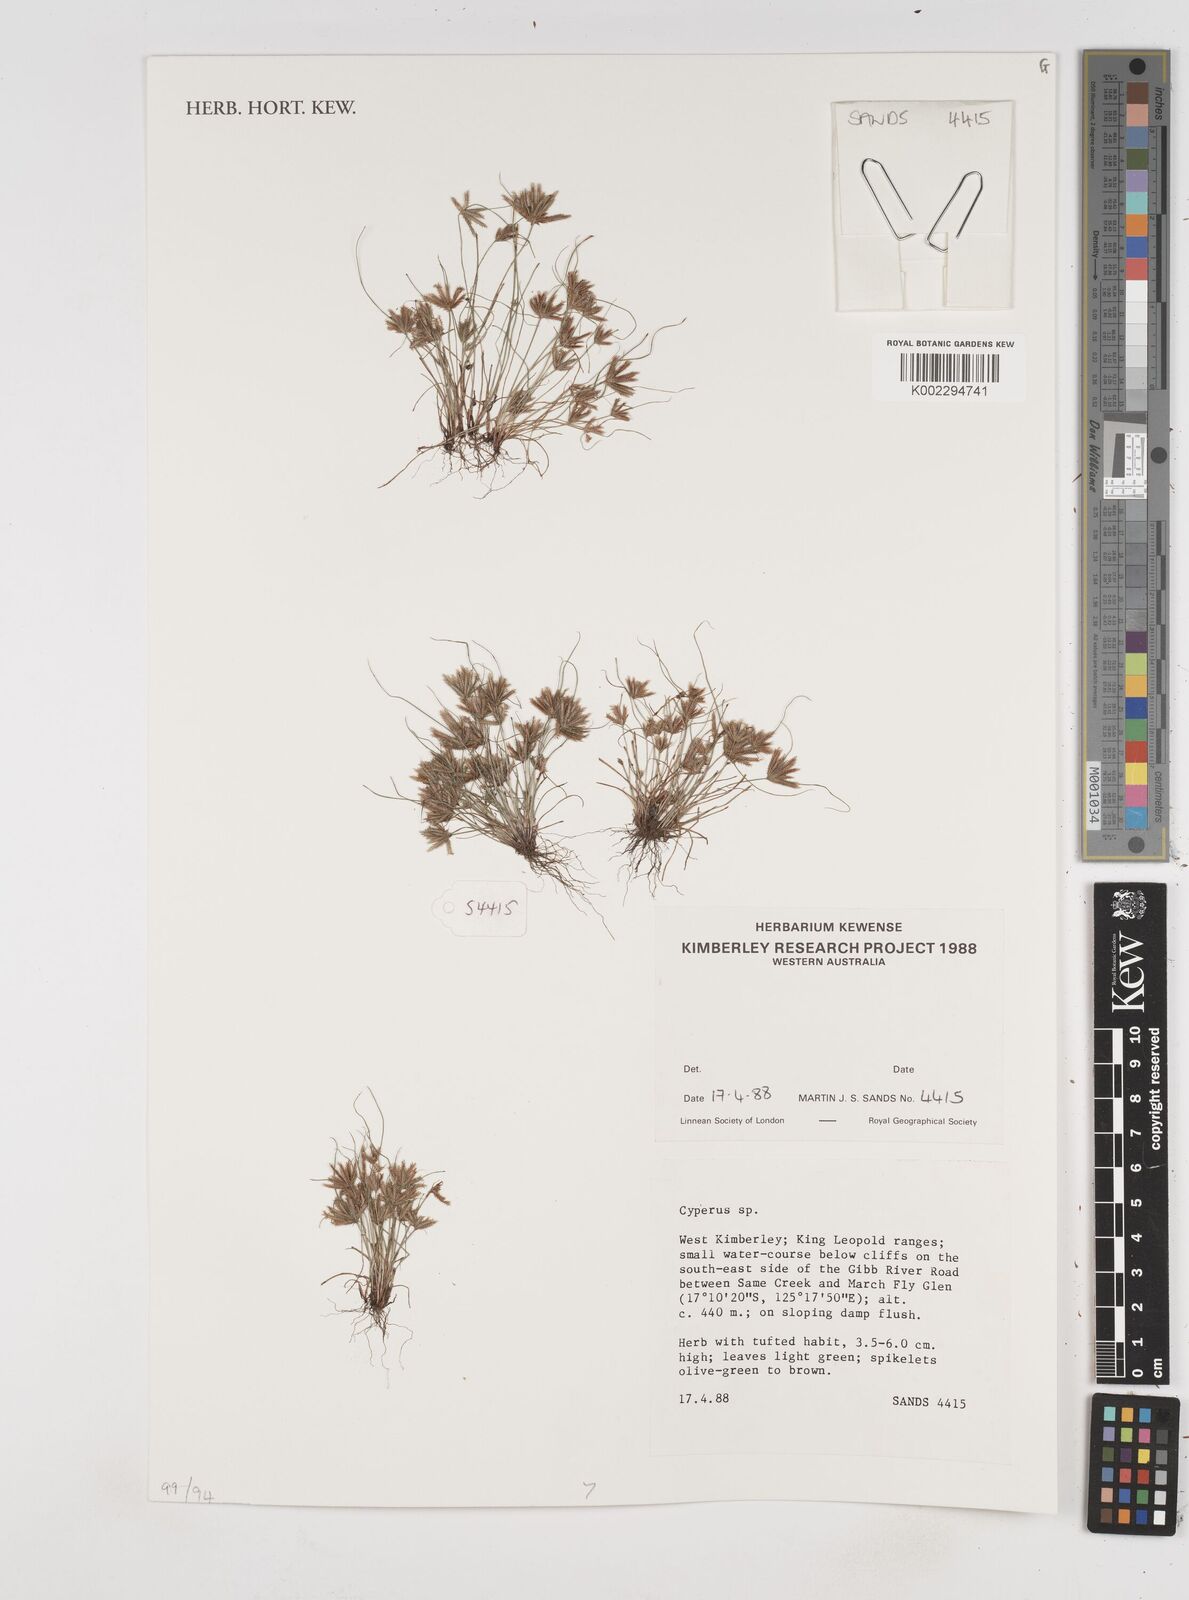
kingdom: Plantae
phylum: Tracheophyta
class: Liliopsida
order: Poales
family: Cyperaceae
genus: Cyperus
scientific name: Cyperus
